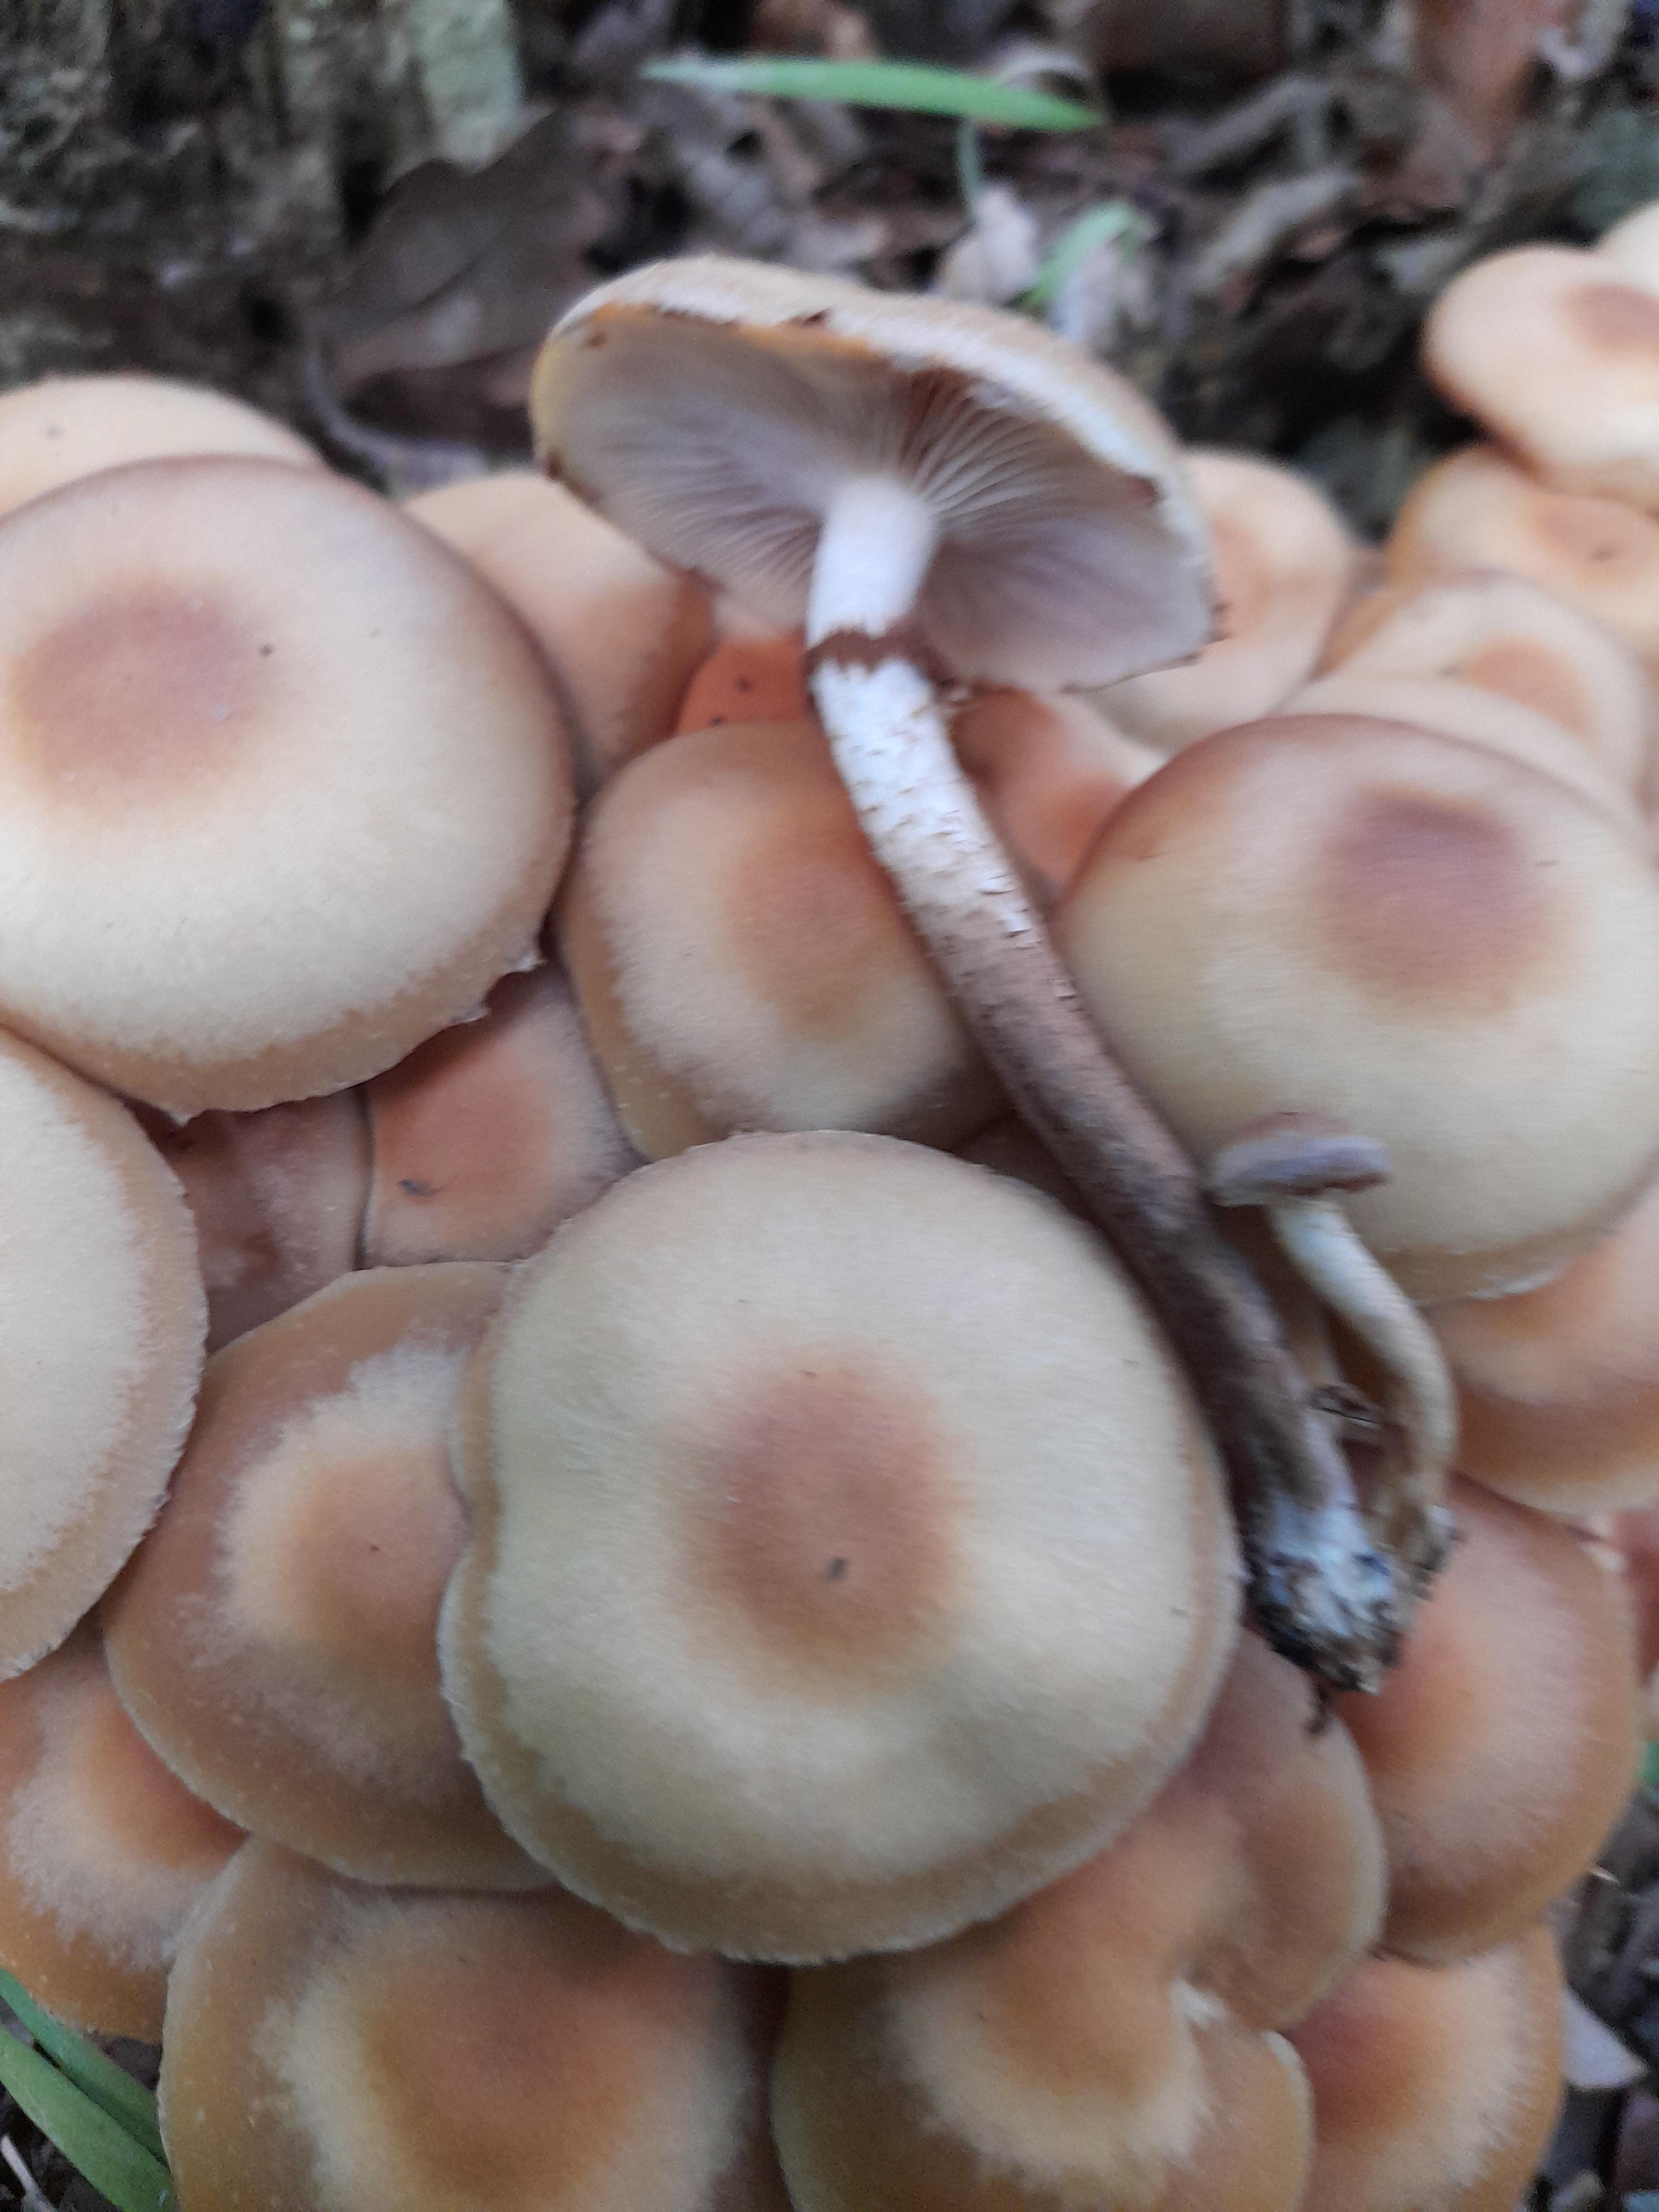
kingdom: Fungi
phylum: Basidiomycota
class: Agaricomycetes
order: Agaricales
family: Strophariaceae
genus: Kuehneromyces
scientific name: Kuehneromyces mutabilis
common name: foranderlig skælhat
